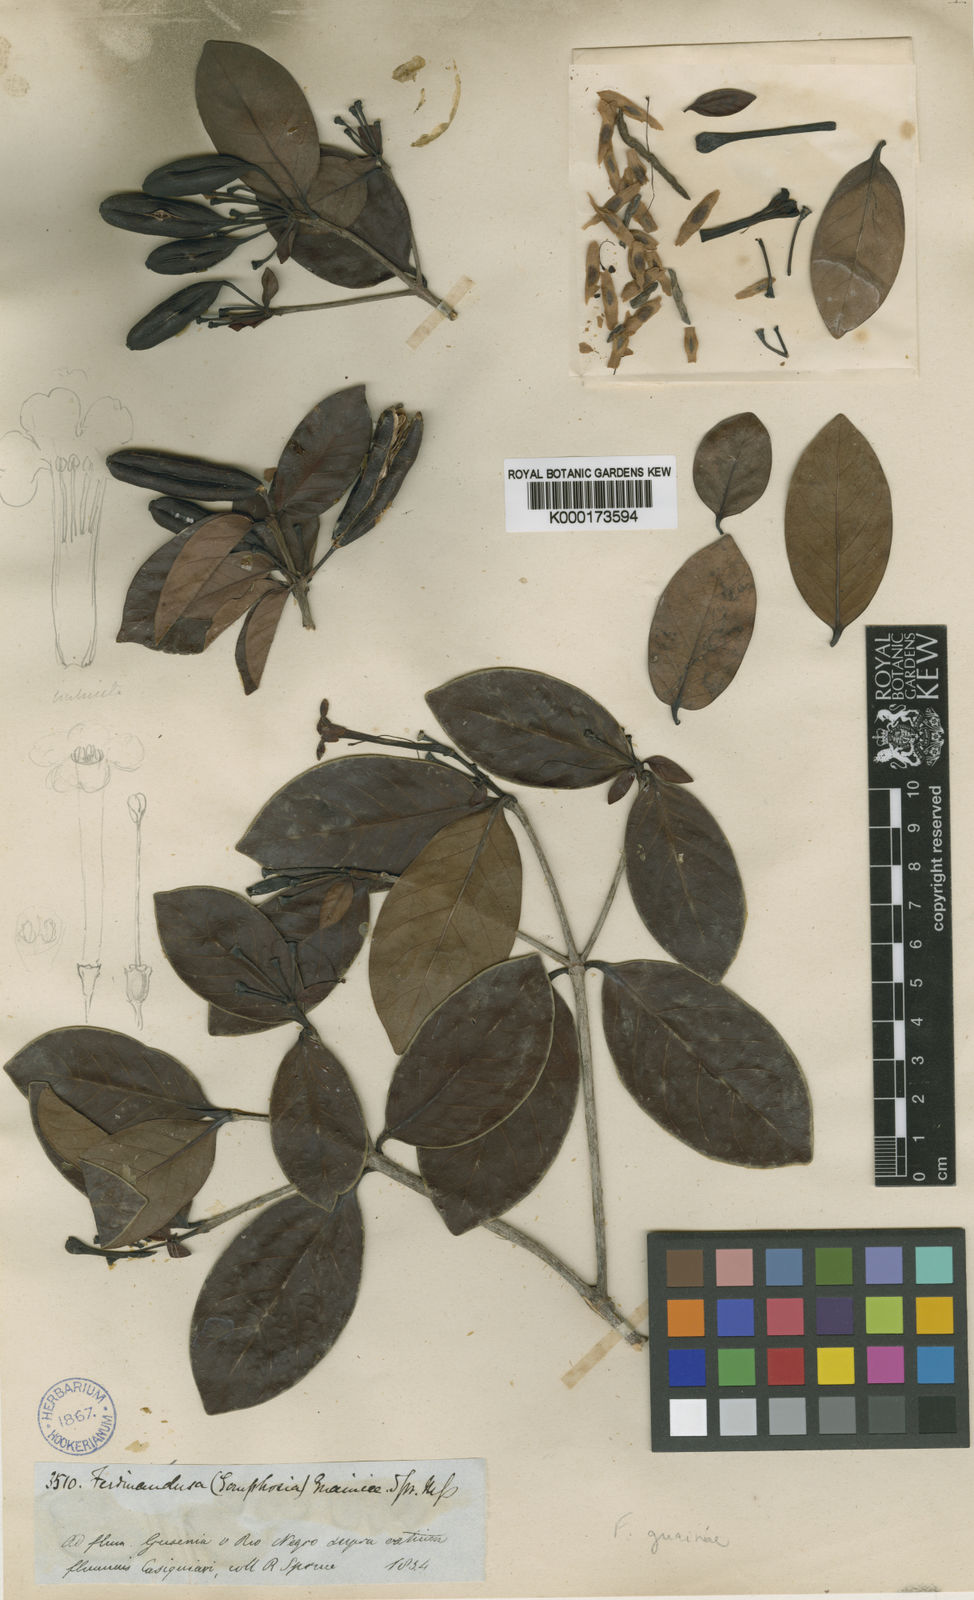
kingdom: Plantae
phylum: Tracheophyta
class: Magnoliopsida
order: Gentianales
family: Rubiaceae
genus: Ferdinandusa
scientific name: Ferdinandusa guainiae
